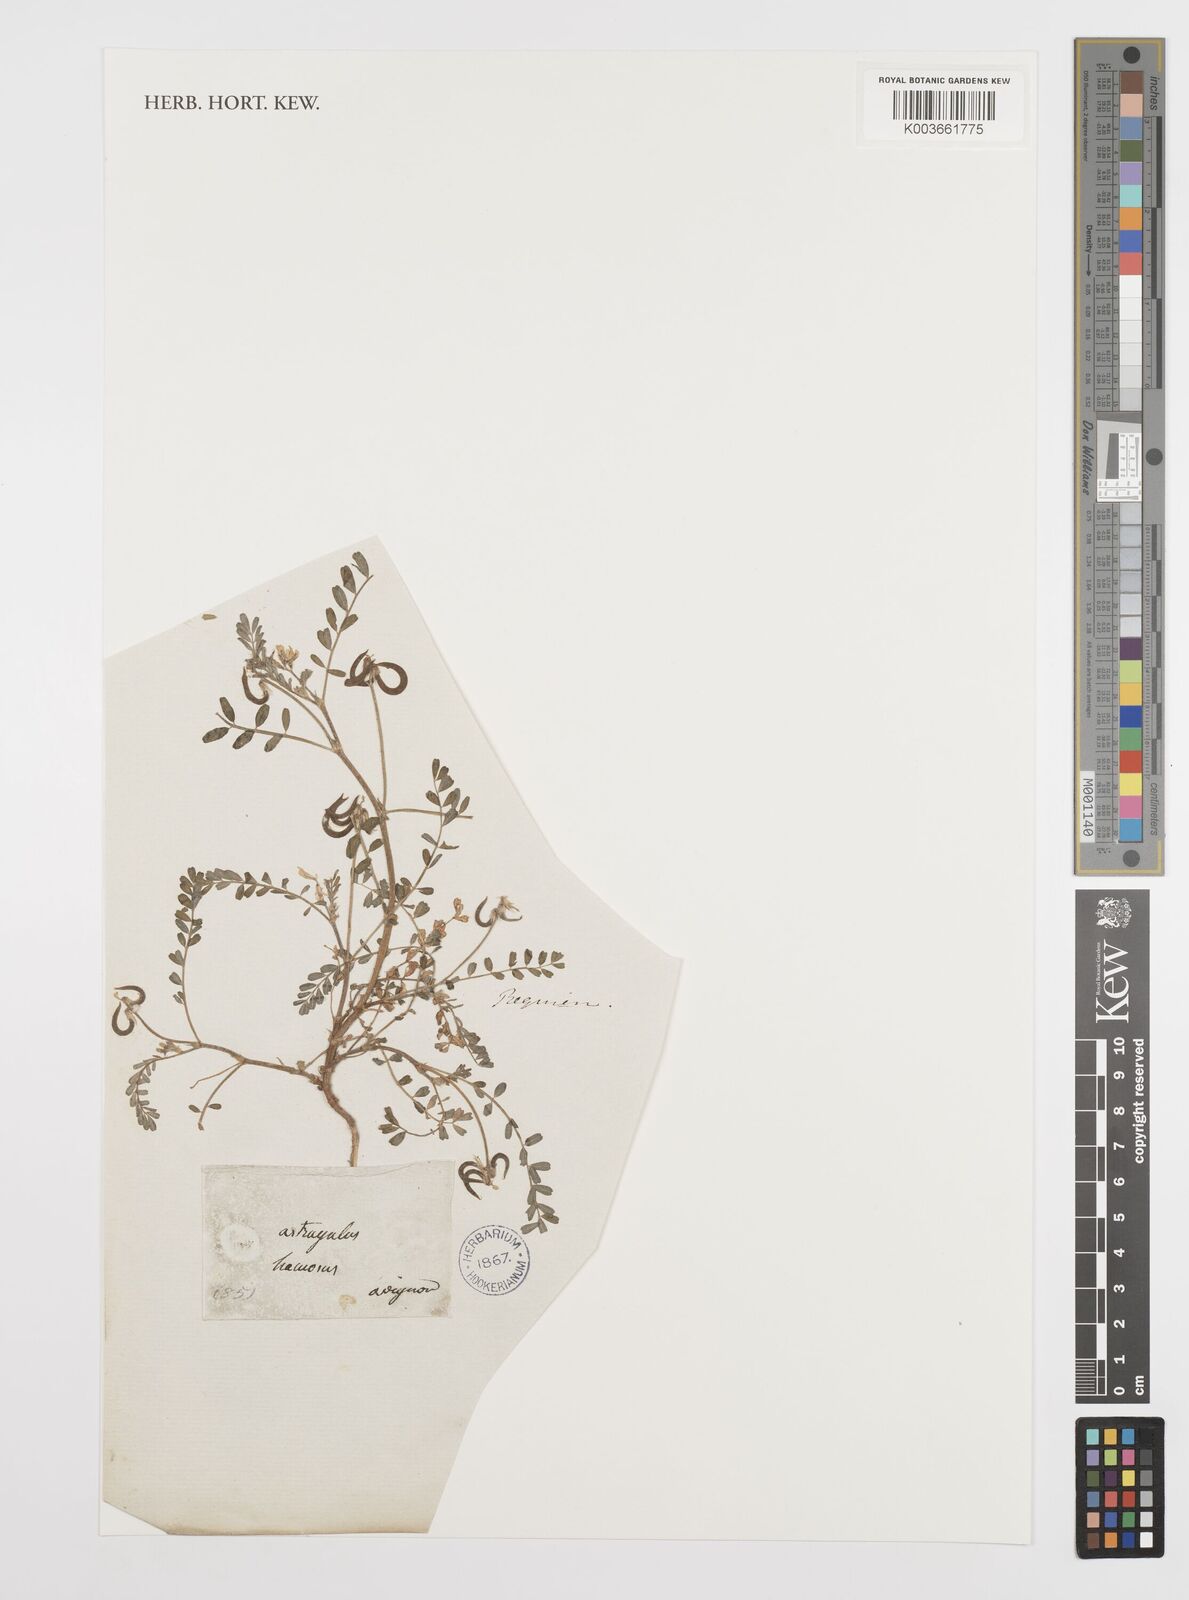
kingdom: Plantae
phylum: Tracheophyta
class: Magnoliopsida
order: Fabales
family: Fabaceae
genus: Astragalus
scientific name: Astragalus hamosus
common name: European milkvetch
